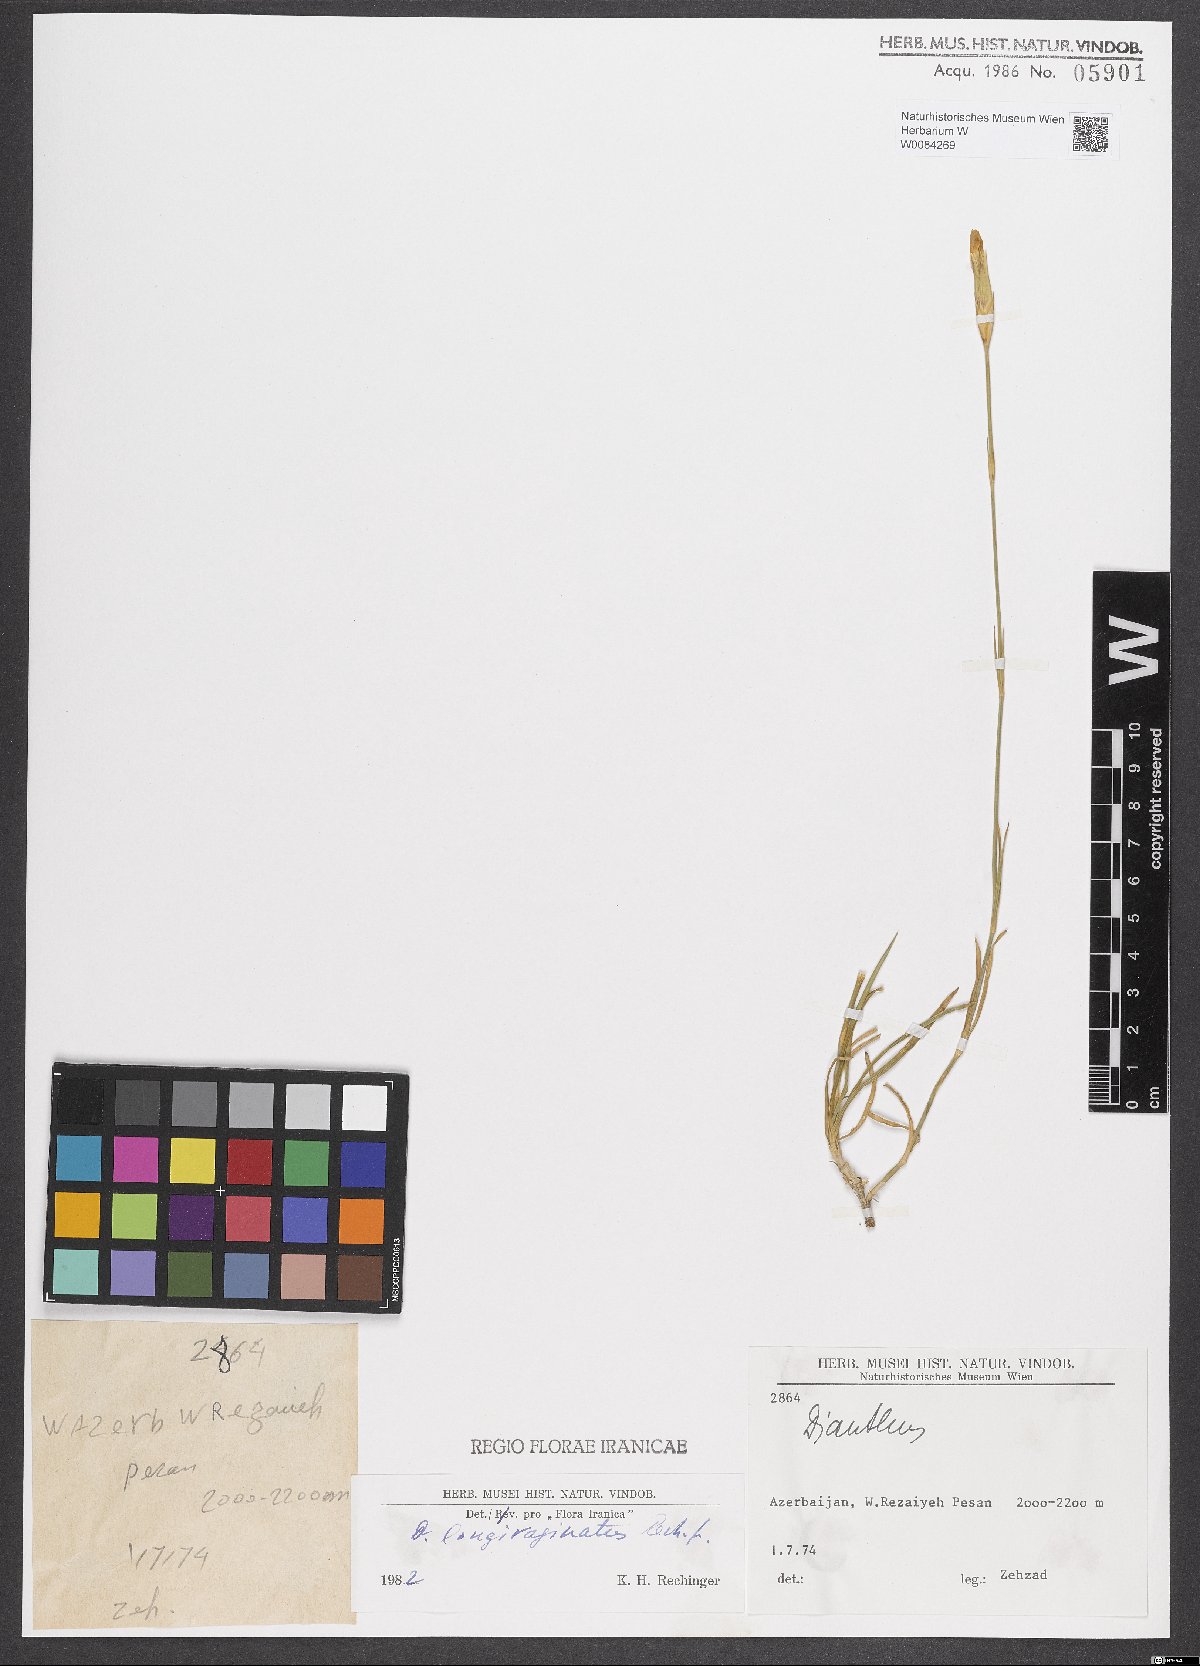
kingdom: Plantae
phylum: Tracheophyta
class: Magnoliopsida
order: Caryophyllales
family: Caryophyllaceae
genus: Dianthus
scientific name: Dianthus longivaginatus
